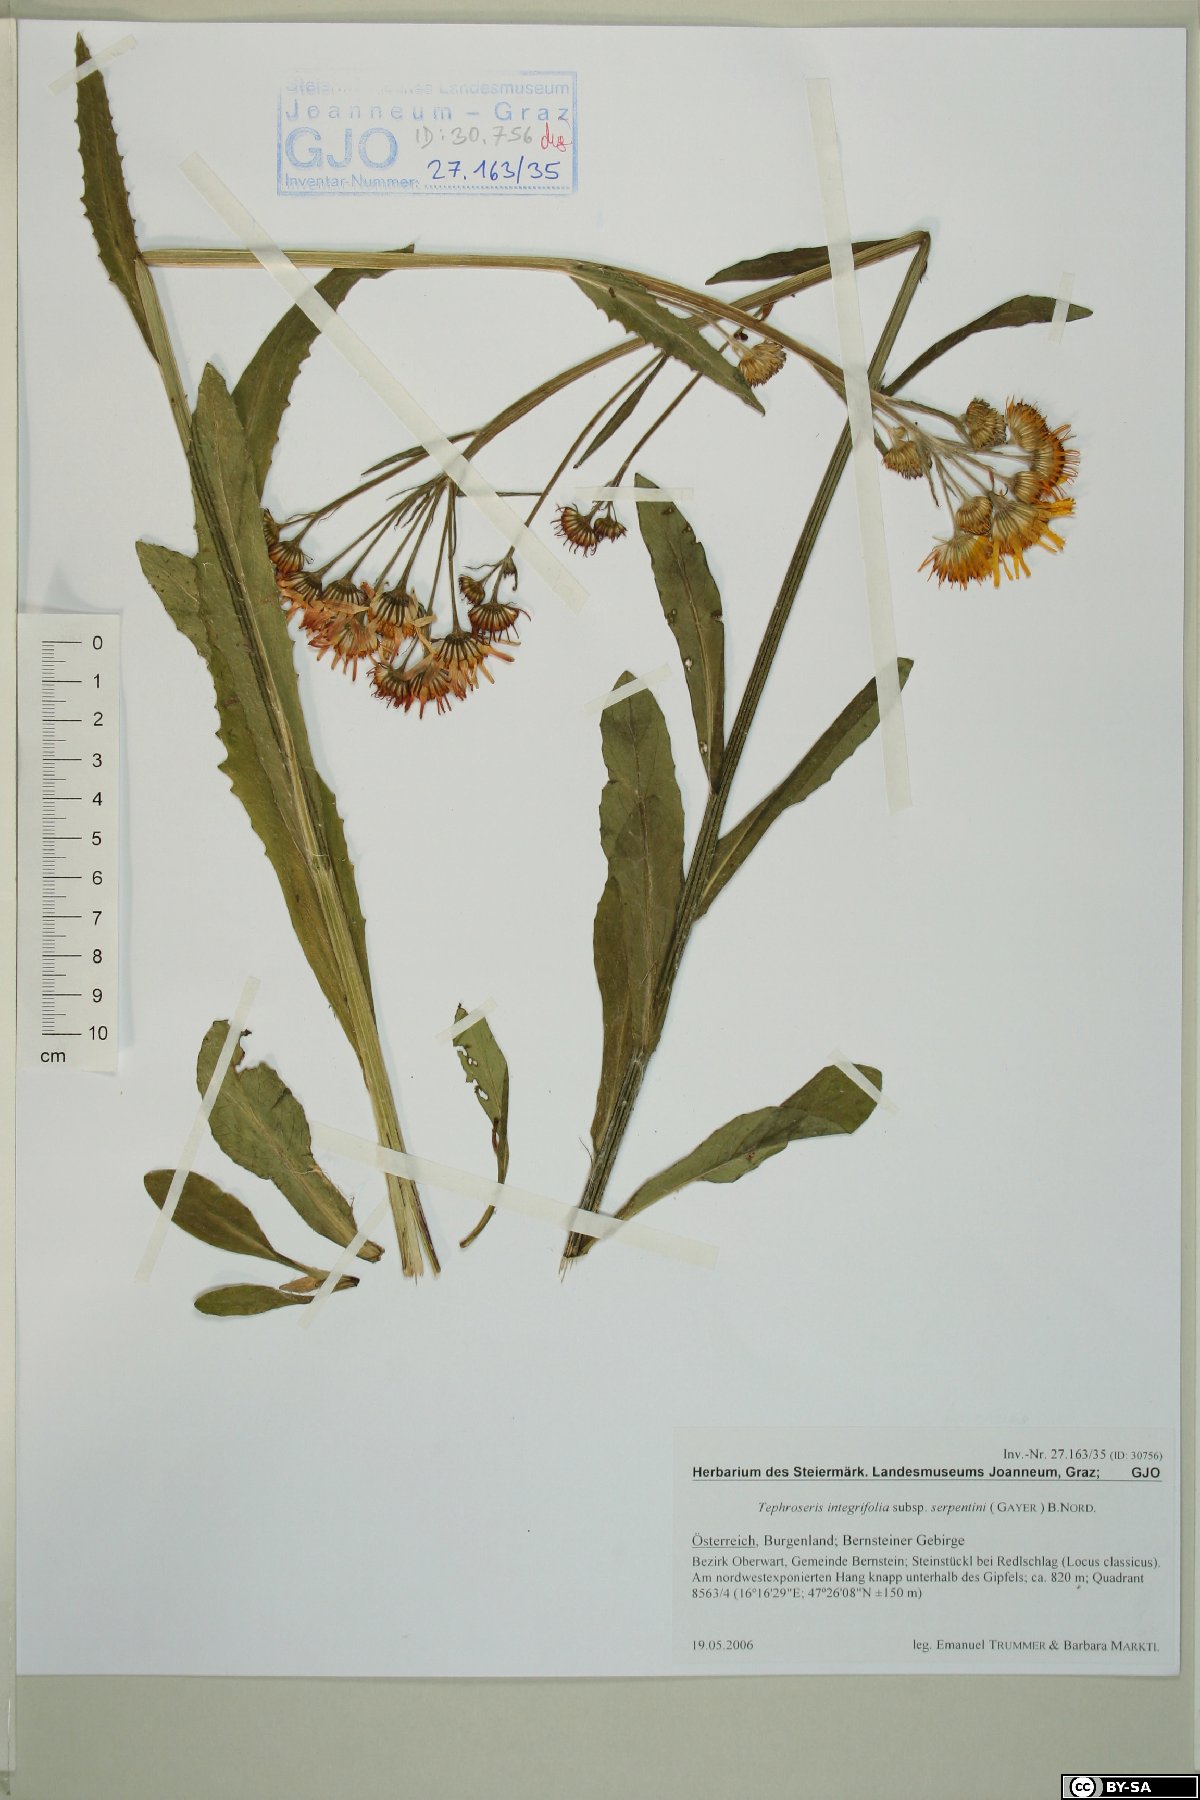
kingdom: Plantae
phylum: Tracheophyta
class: Magnoliopsida
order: Asterales
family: Asteraceae
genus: Tephroseris
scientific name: Tephroseris integrifolia
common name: Field fleawort
